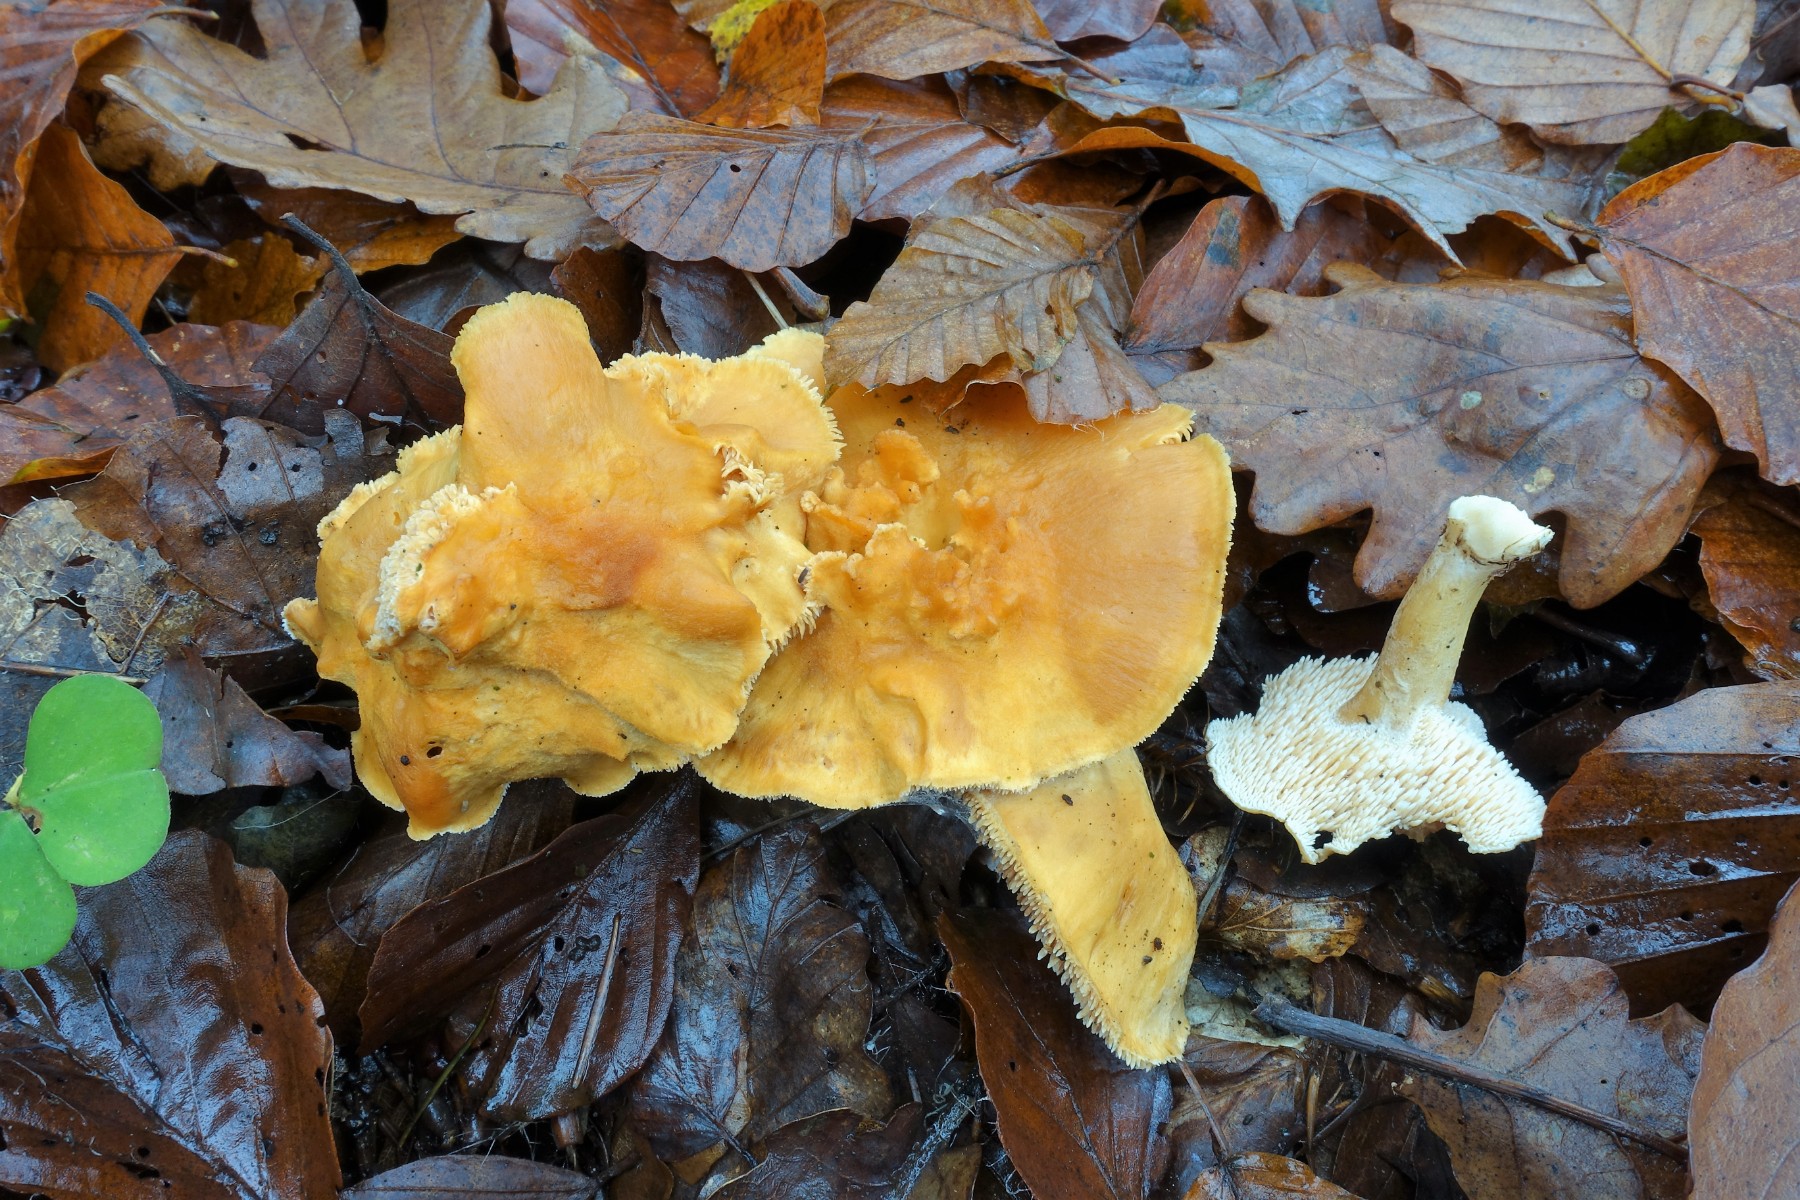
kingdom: Fungi
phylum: Basidiomycota
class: Agaricomycetes
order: Cantharellales
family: Hydnaceae
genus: Hydnum
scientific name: Hydnum rufescens
